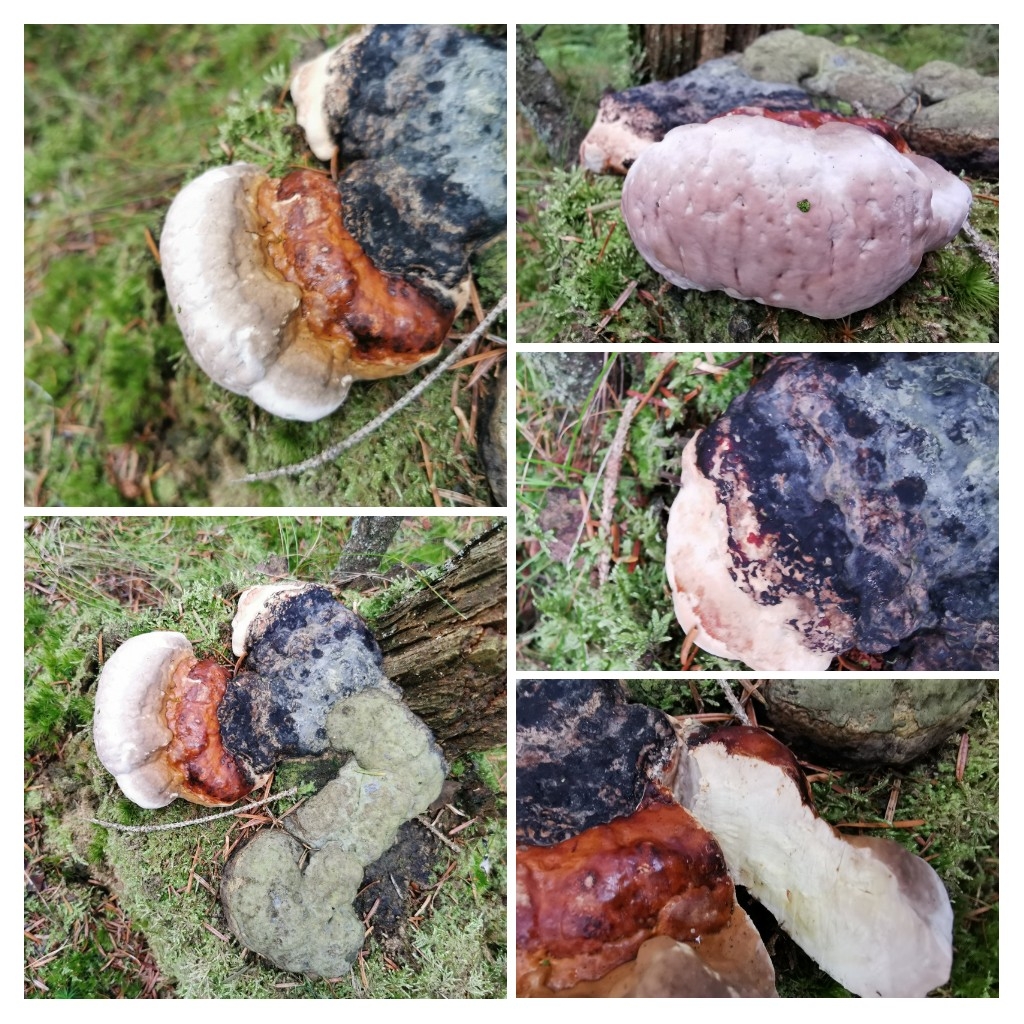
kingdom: Fungi
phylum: Basidiomycota
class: Agaricomycetes
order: Polyporales
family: Fomitopsidaceae
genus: Fomitopsis
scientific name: Fomitopsis pinicola
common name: randbæltet hovporesvamp
